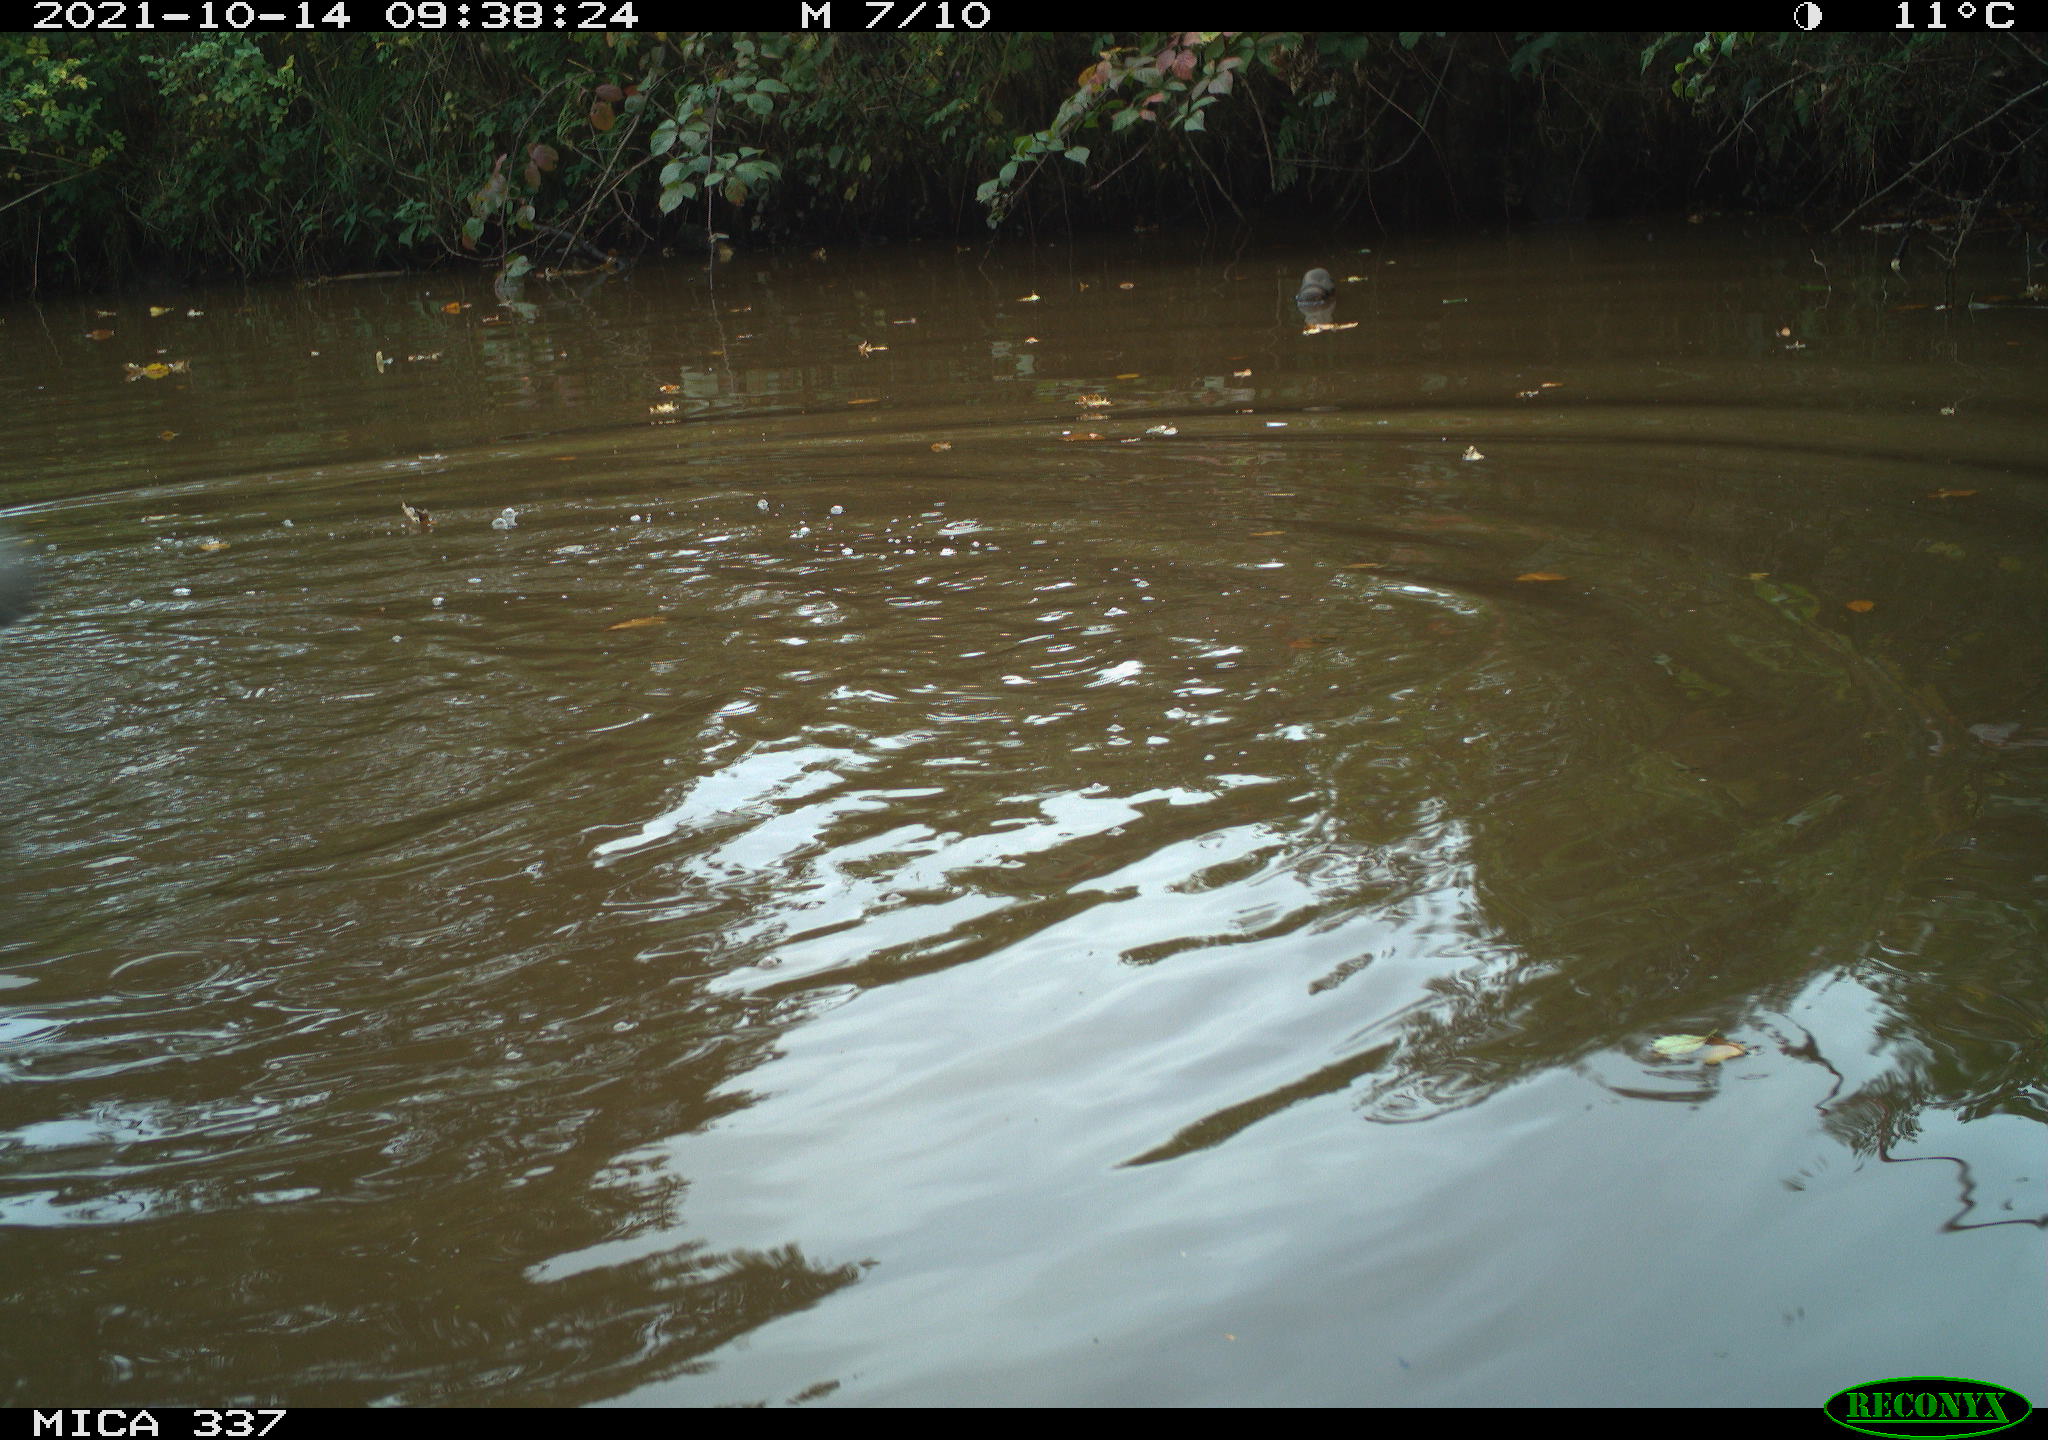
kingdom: Animalia
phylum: Chordata
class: Aves
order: Anseriformes
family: Anatidae
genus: Anas
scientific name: Anas platyrhynchos
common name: Mallard
